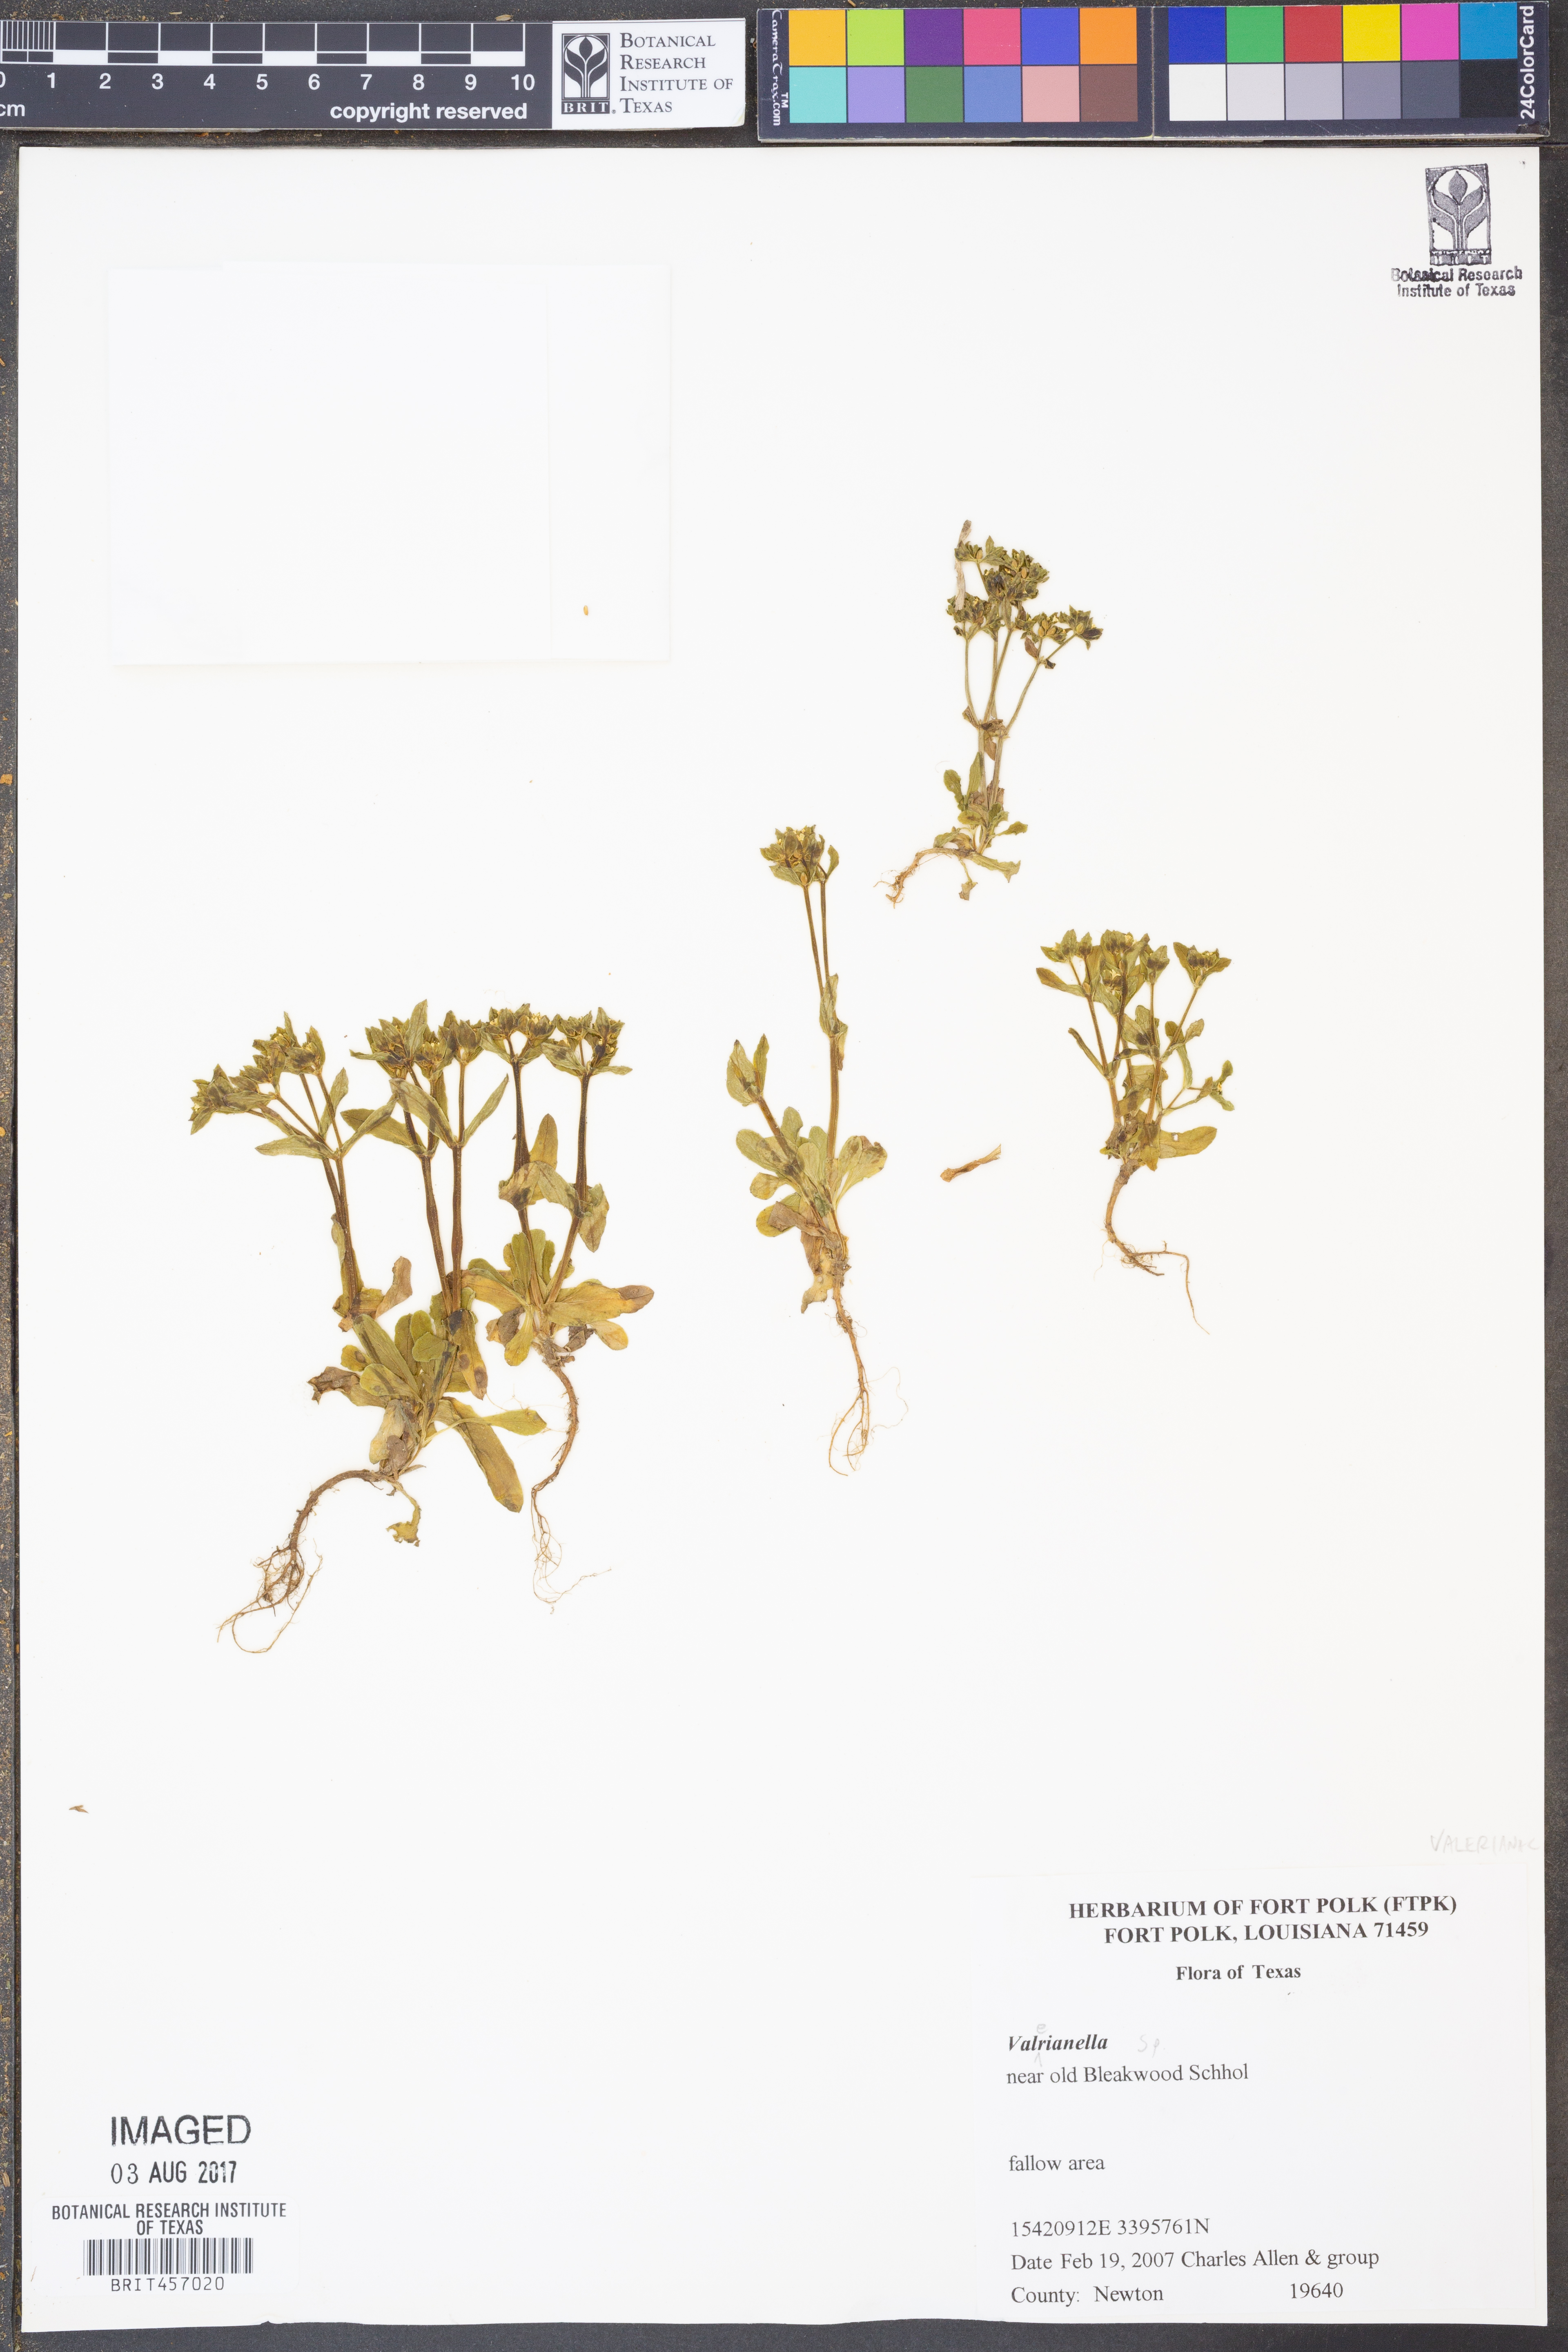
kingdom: Plantae
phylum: Tracheophyta
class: Magnoliopsida
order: Dipsacales
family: Caprifoliaceae
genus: Valerianella
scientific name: Valerianella
